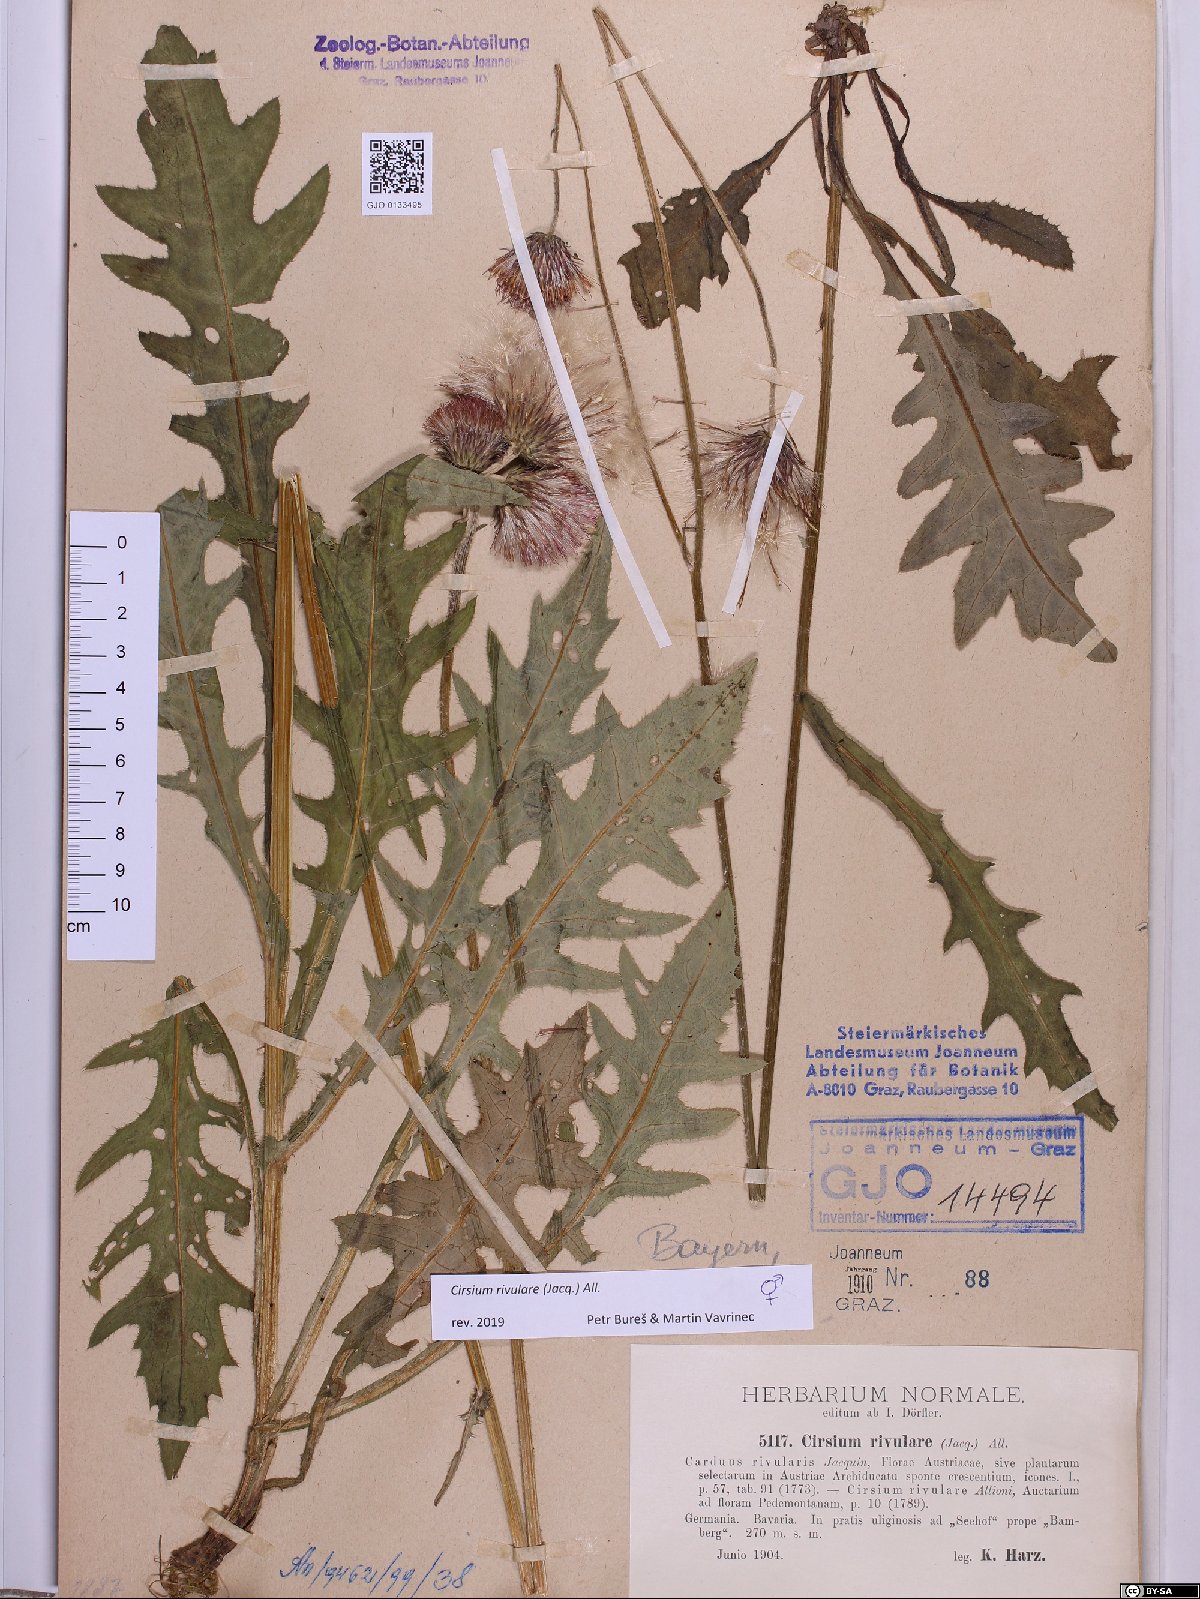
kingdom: Plantae
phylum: Tracheophyta
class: Magnoliopsida
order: Asterales
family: Asteraceae
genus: Cirsium
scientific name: Cirsium rivulare
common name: Brook thistle
